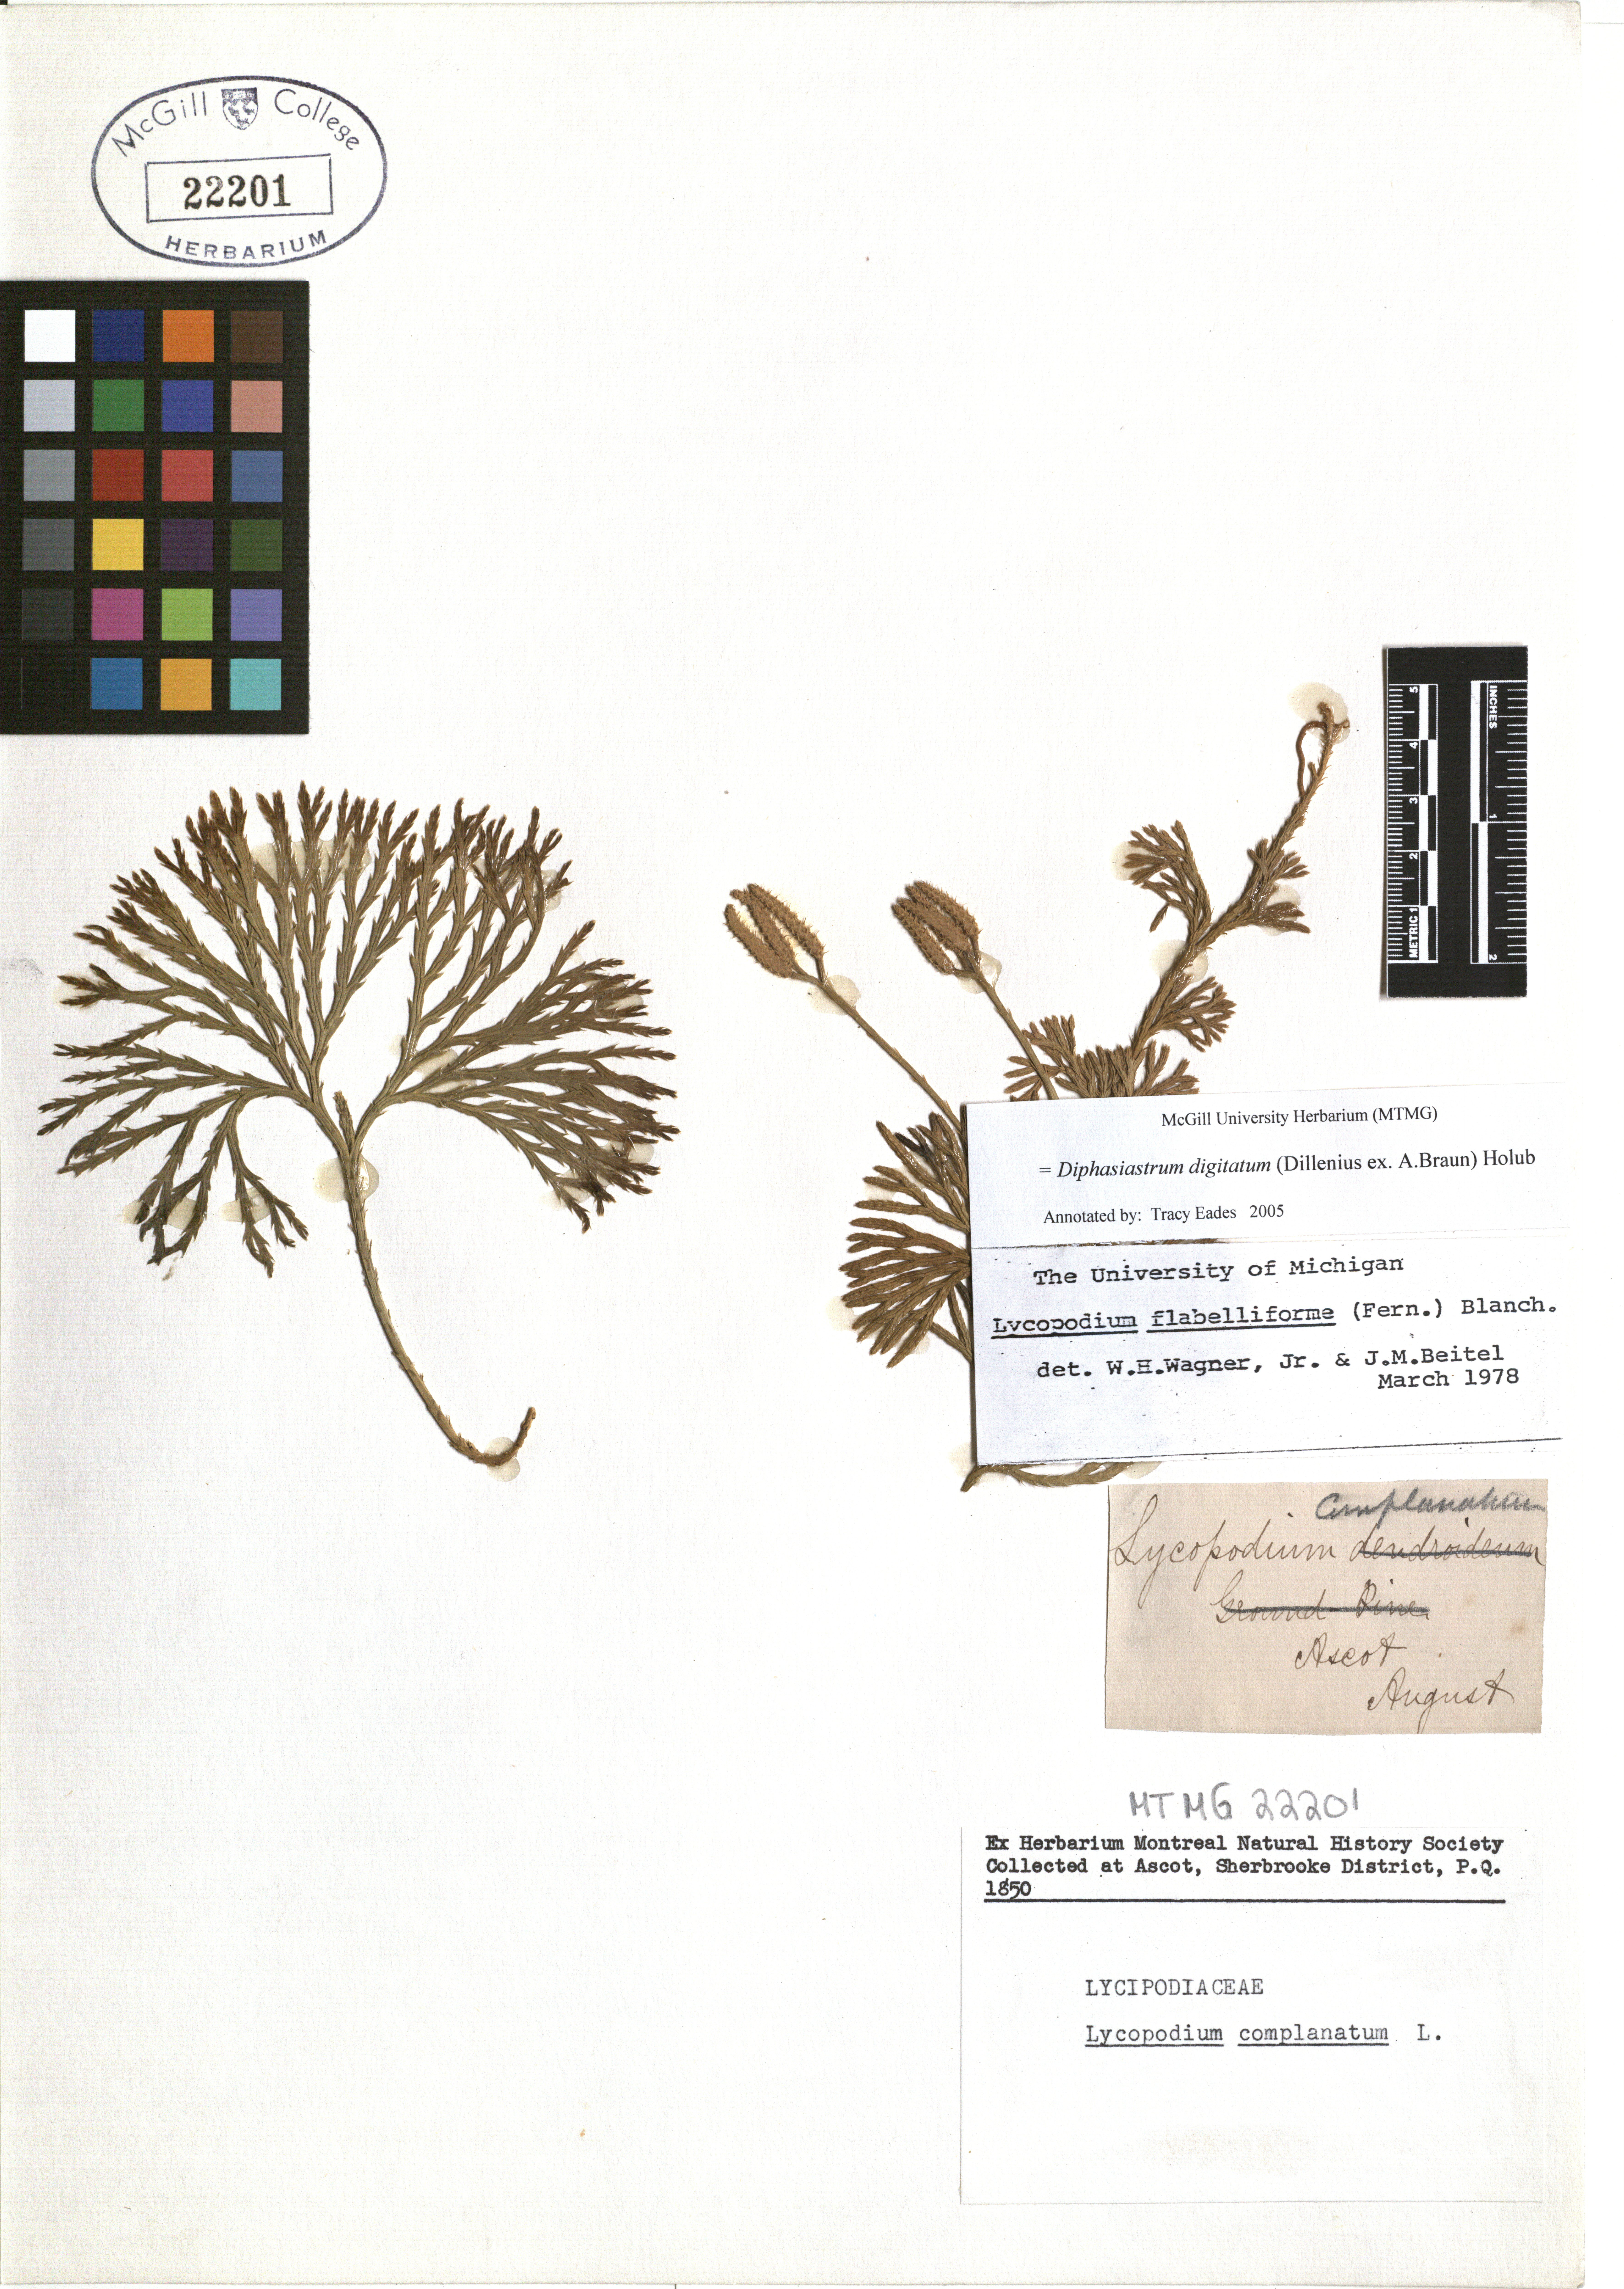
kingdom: Plantae
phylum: Tracheophyta
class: Lycopodiopsida
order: Lycopodiales
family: Lycopodiaceae
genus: Diphasiastrum
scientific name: Diphasiastrum digitatum
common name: Southern running-pine
